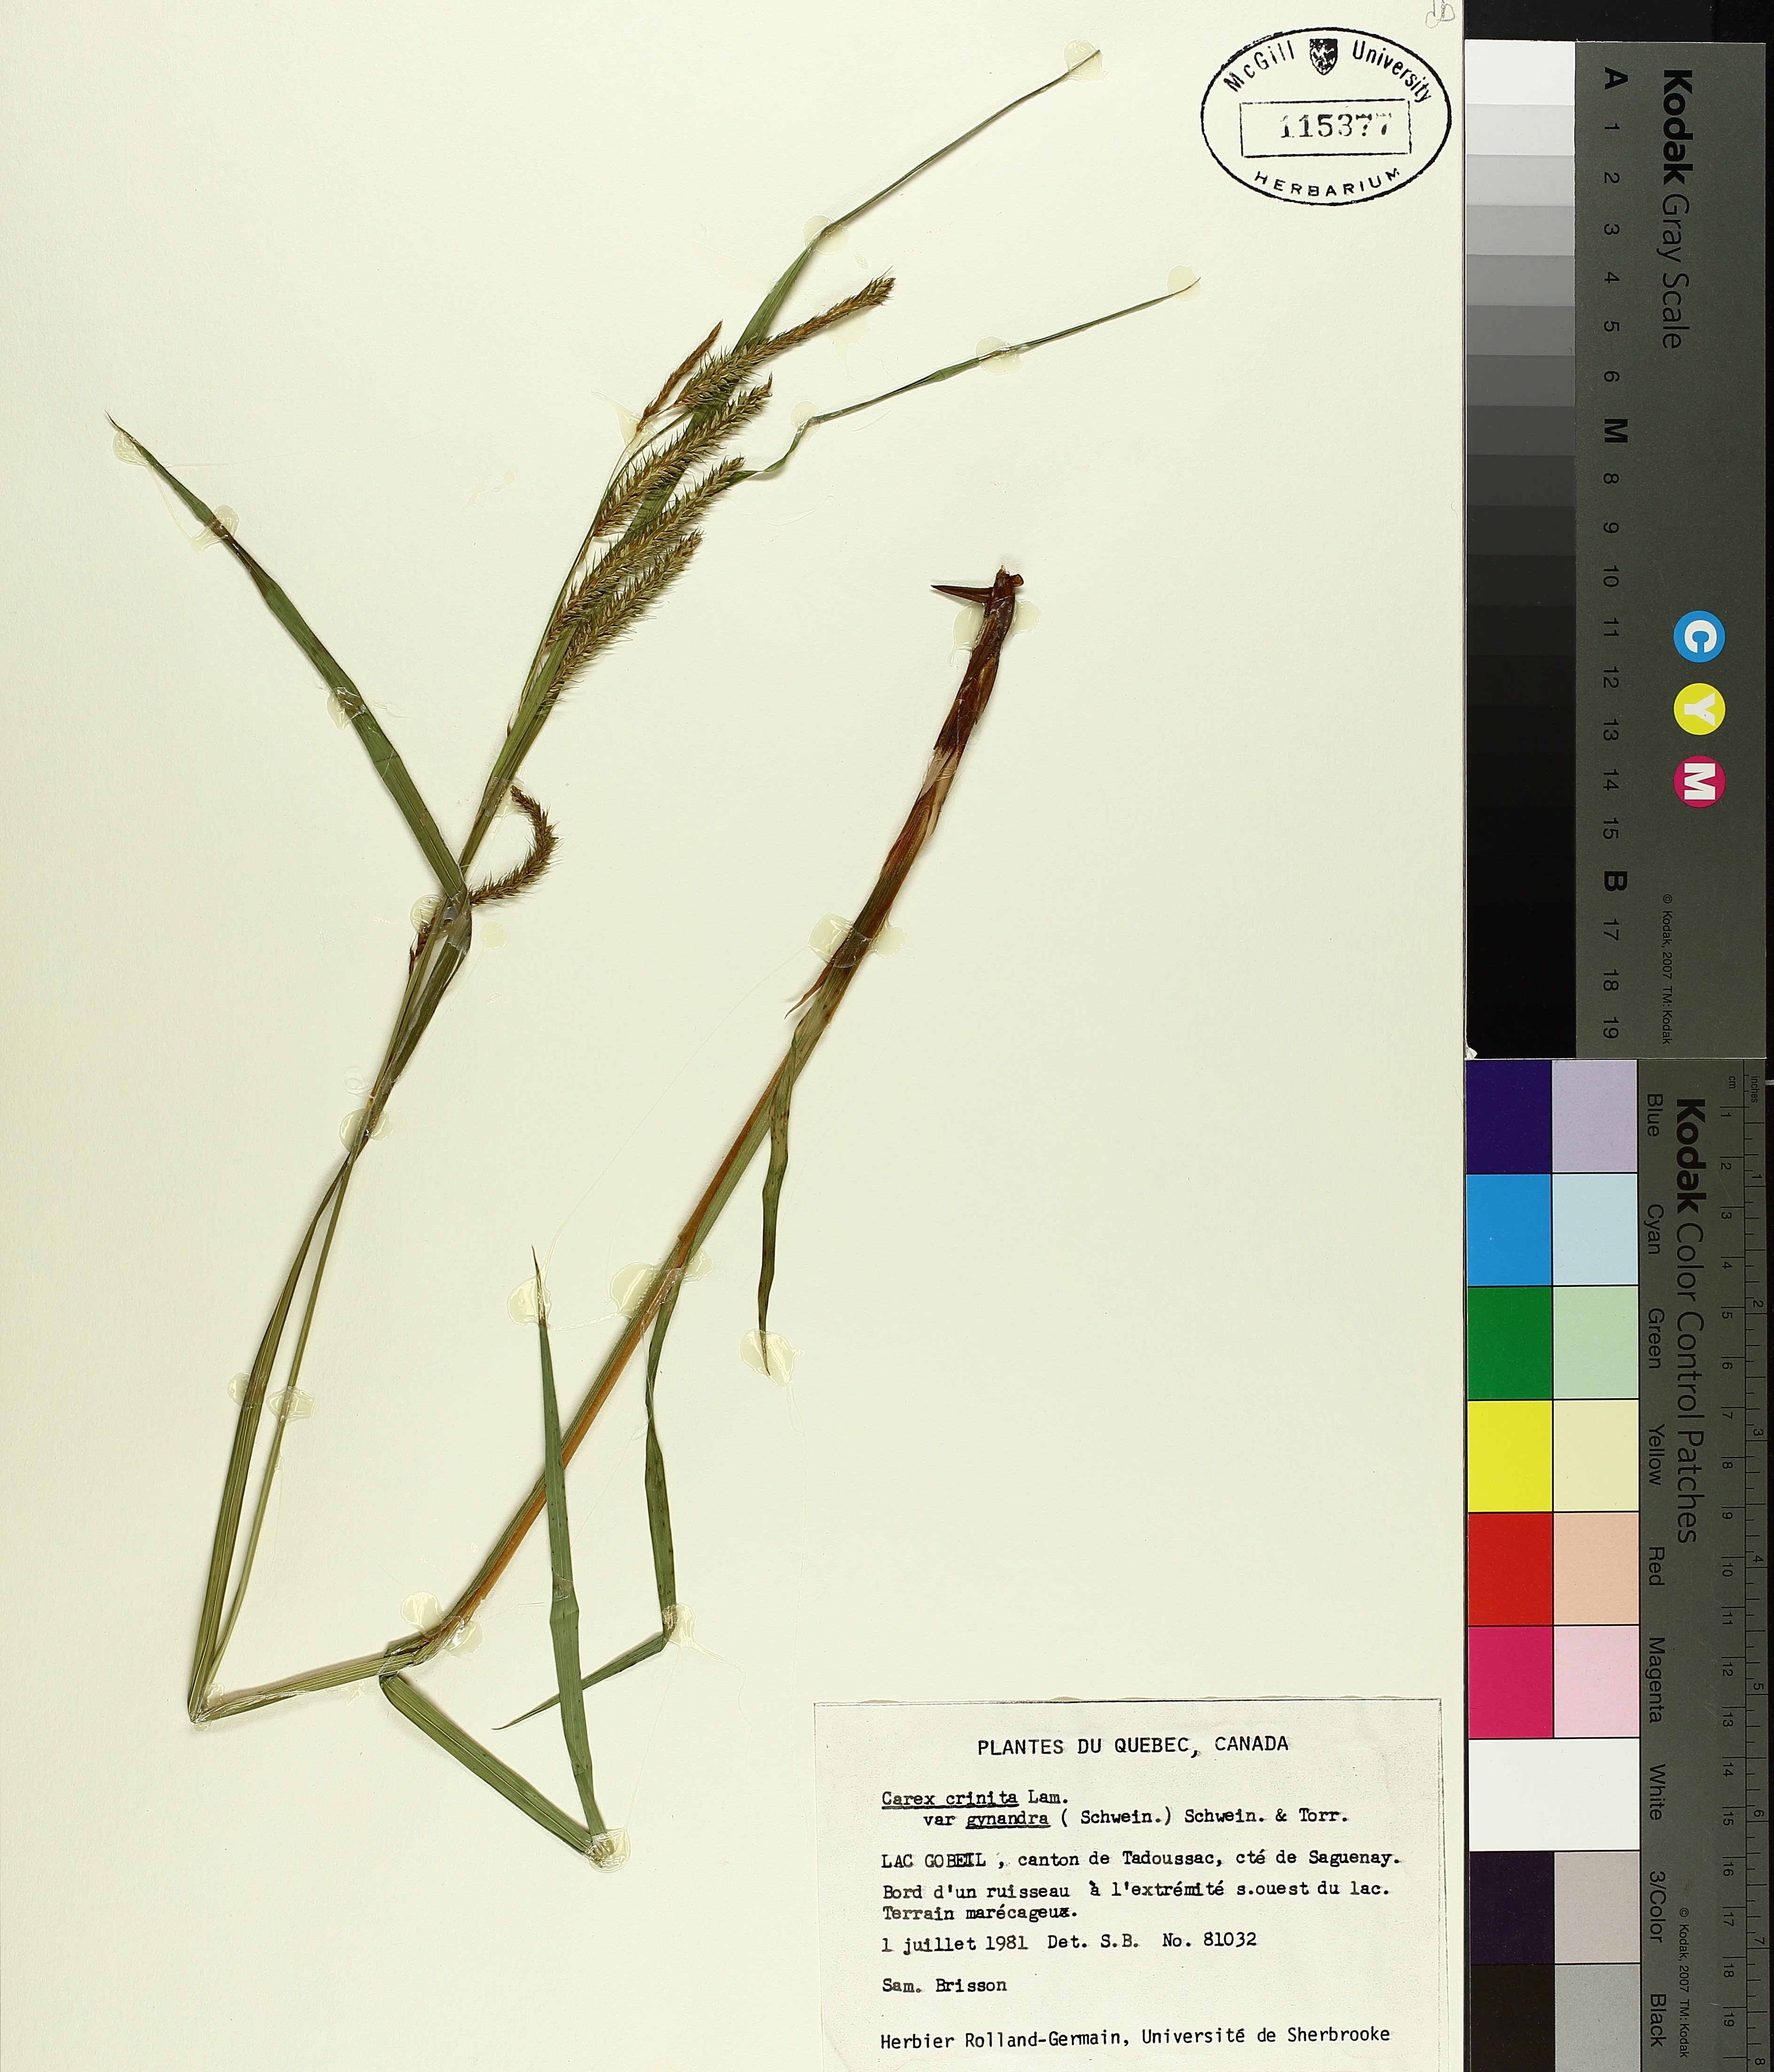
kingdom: Plantae
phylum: Tracheophyta
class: Liliopsida
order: Poales
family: Cyperaceae
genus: Carex
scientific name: Carex gynandra
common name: Nodding sedge
